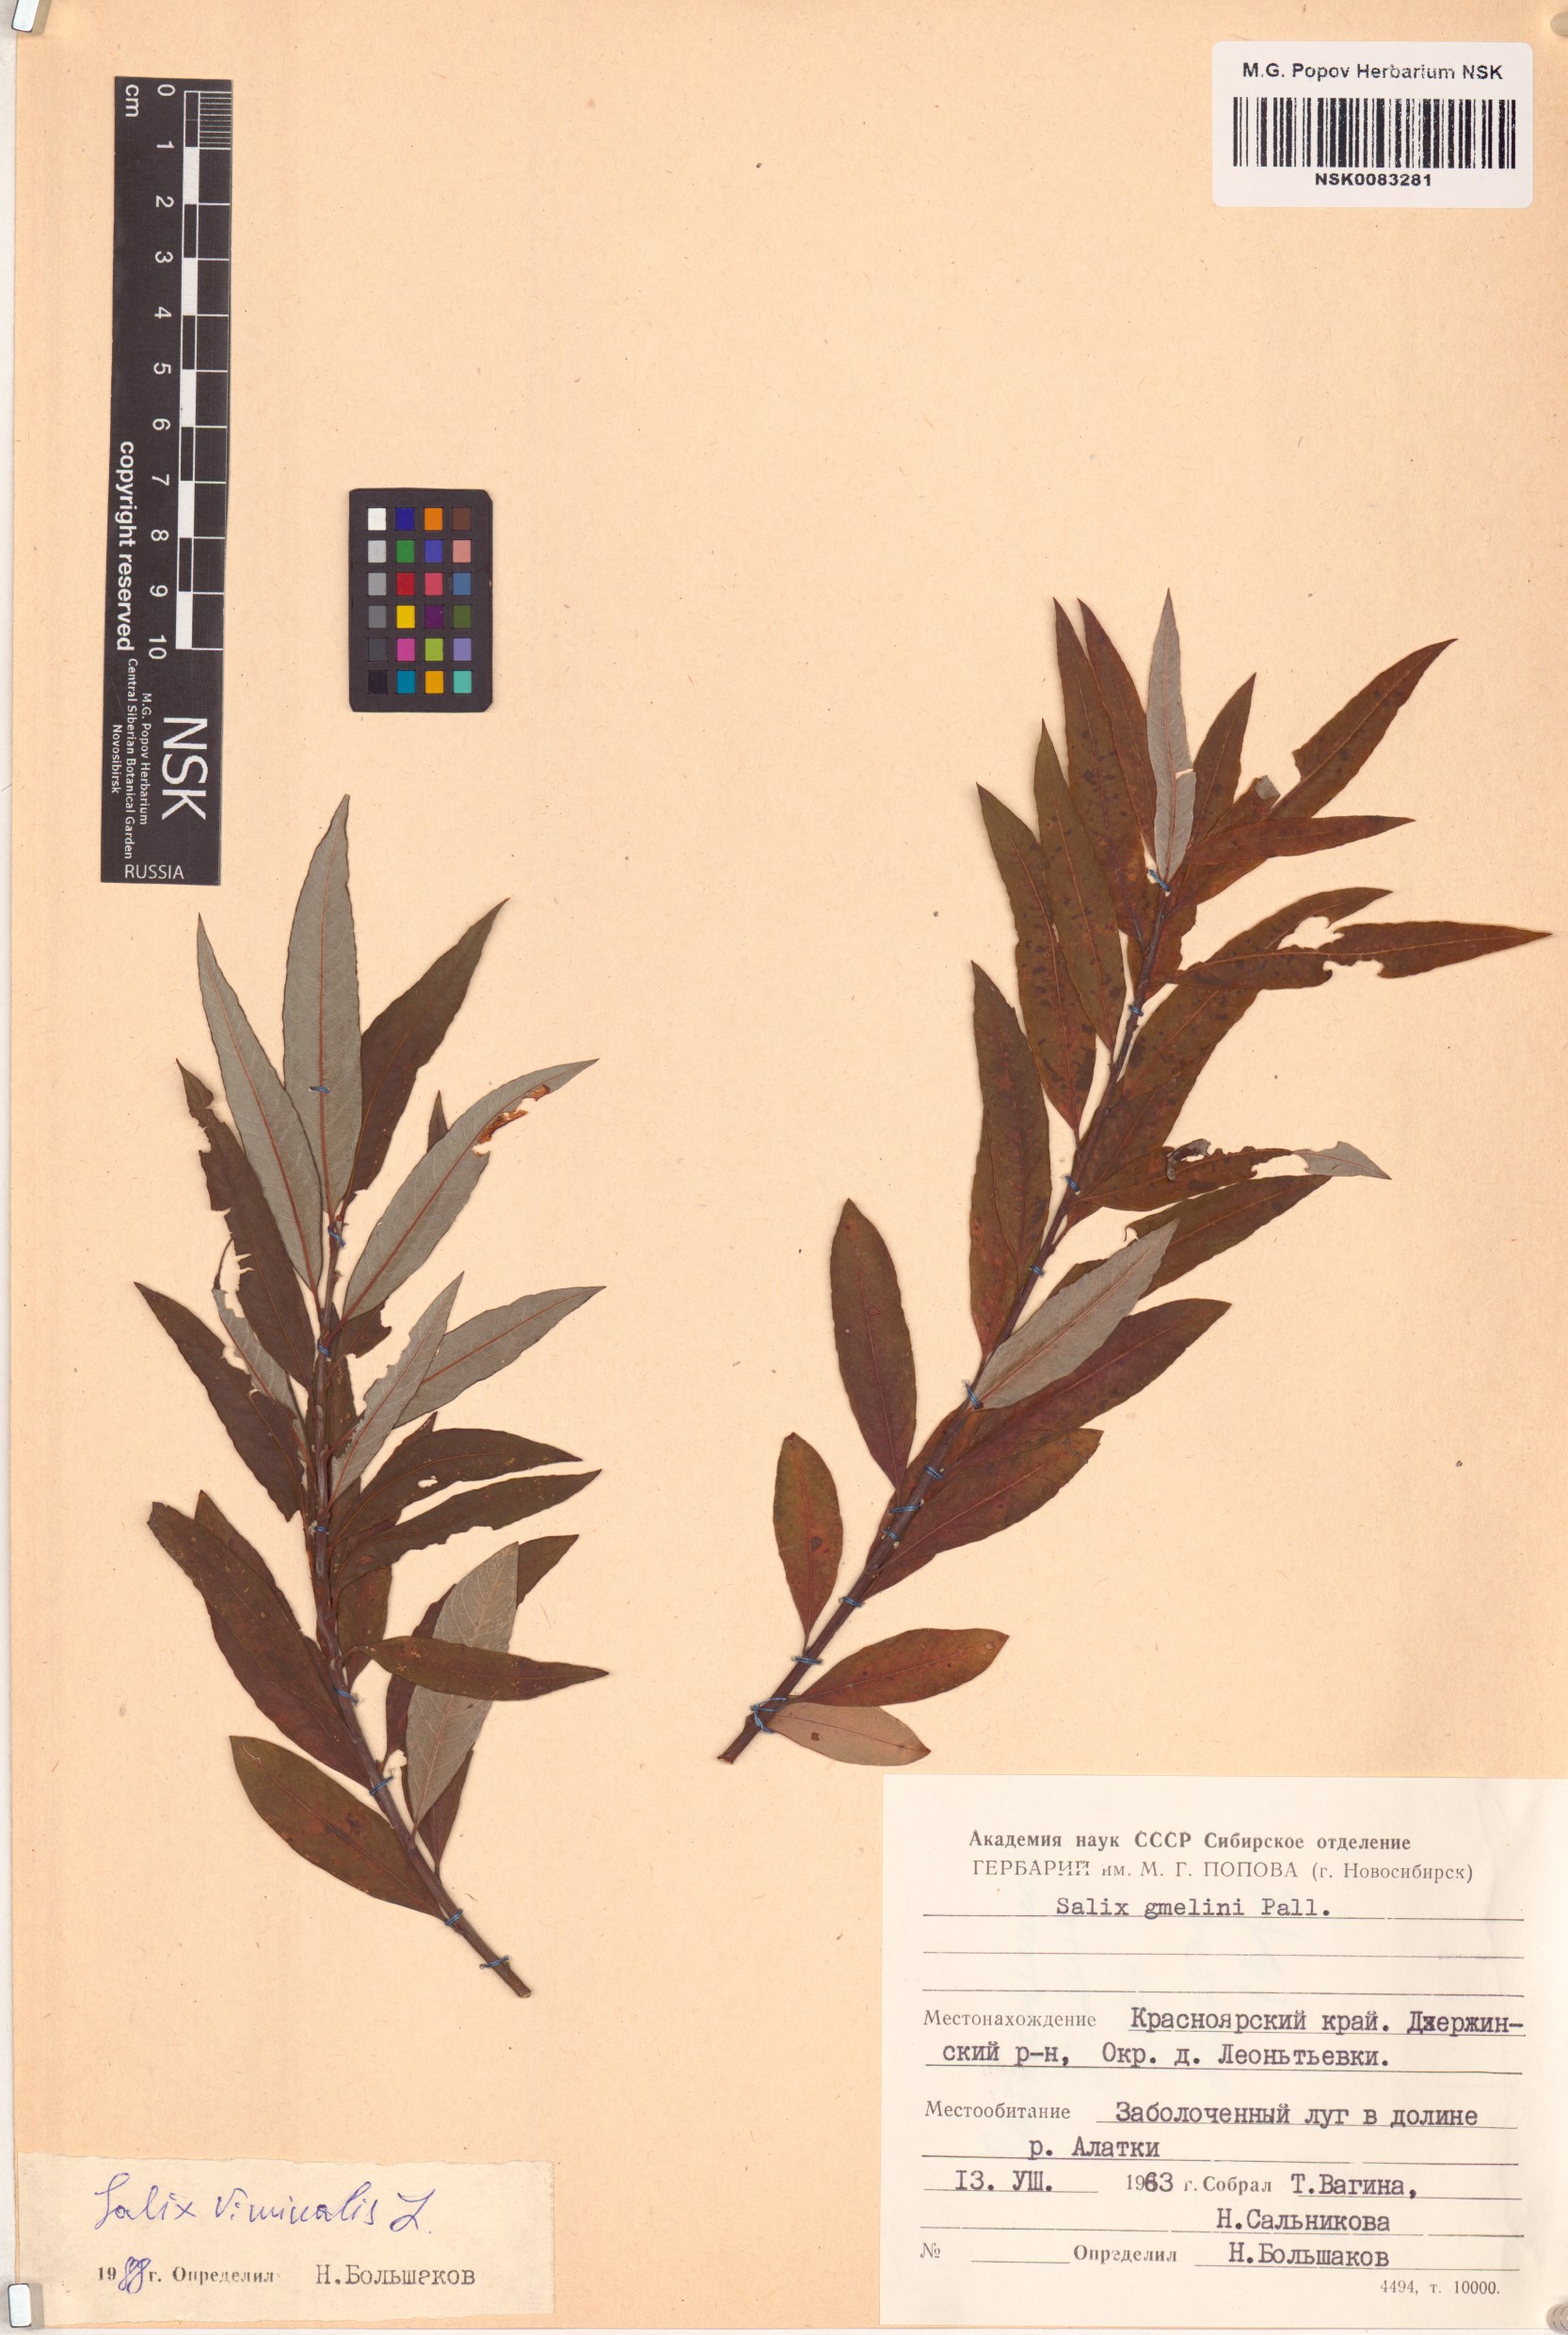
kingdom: Plantae
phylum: Tracheophyta
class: Magnoliopsida
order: Malpighiales
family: Salicaceae
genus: Salix
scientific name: Salix viminalis
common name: Osier
